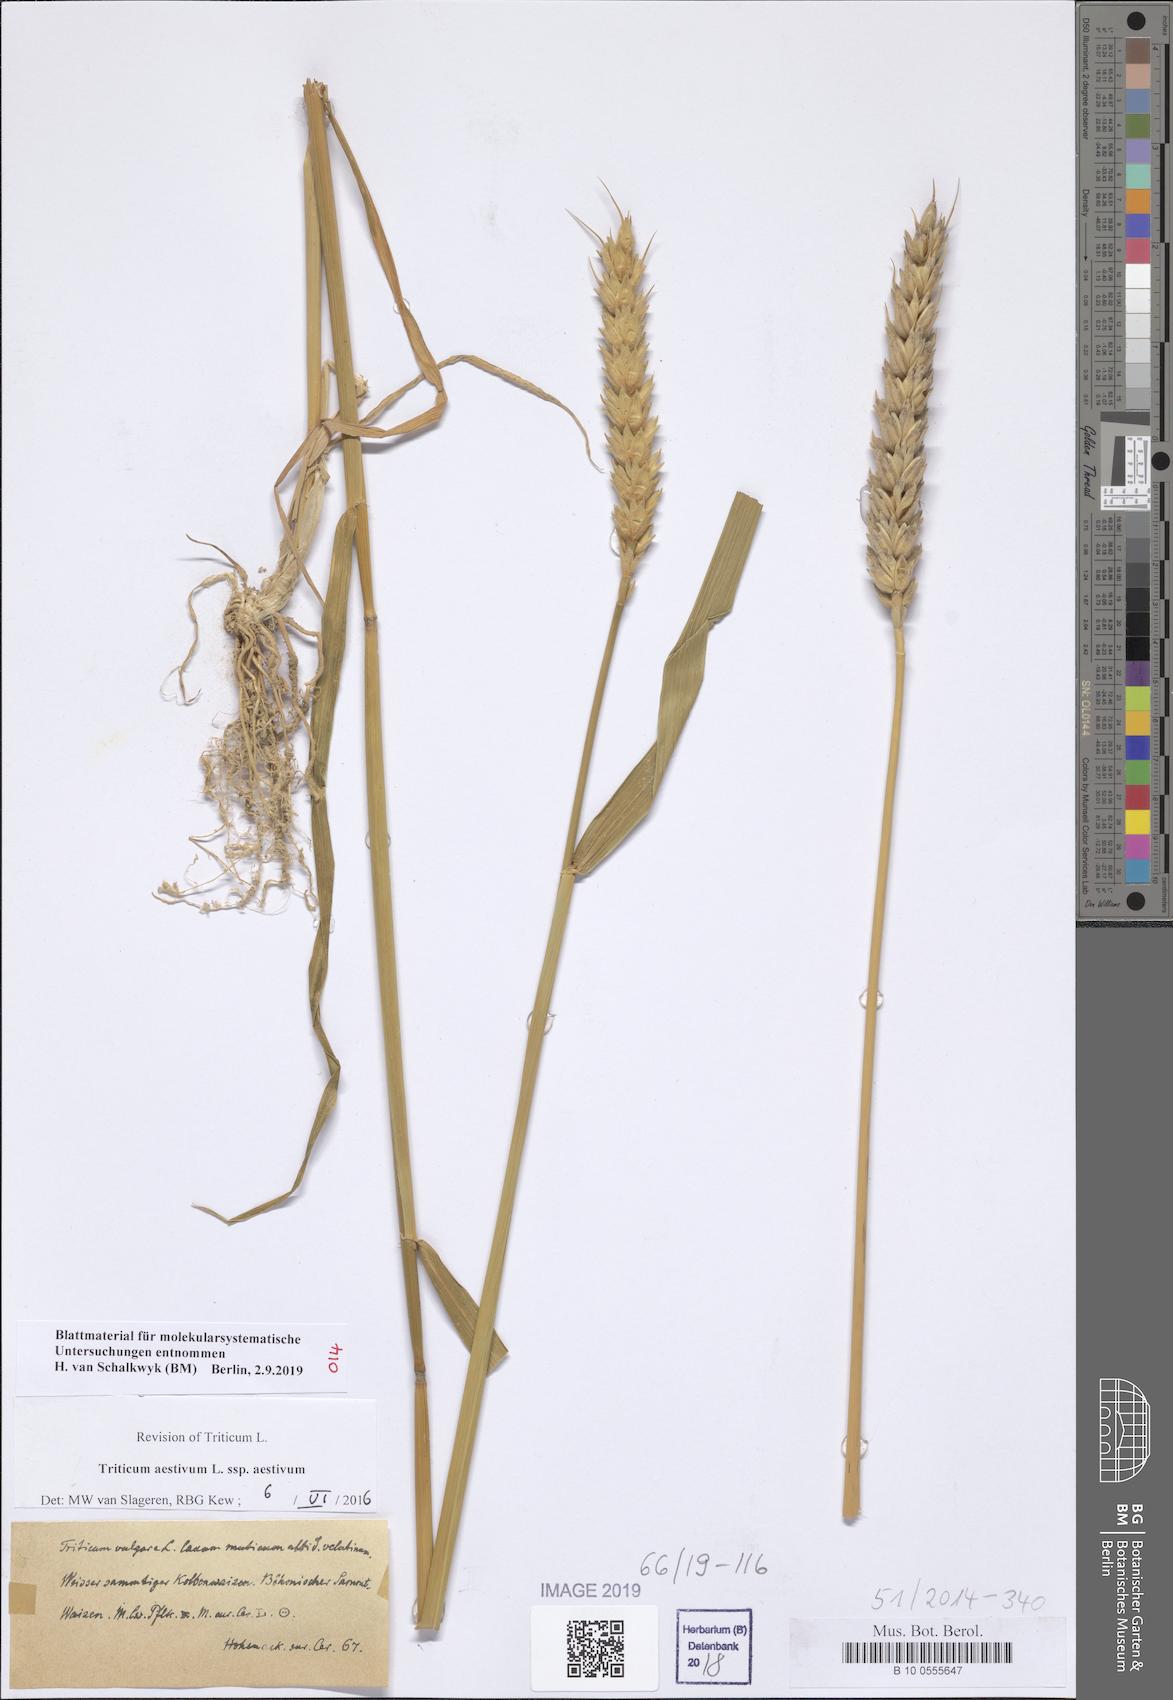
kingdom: Plantae
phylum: Tracheophyta
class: Liliopsida
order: Poales
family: Poaceae
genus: Triticum
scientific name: Triticum aestivum
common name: Common wheat
